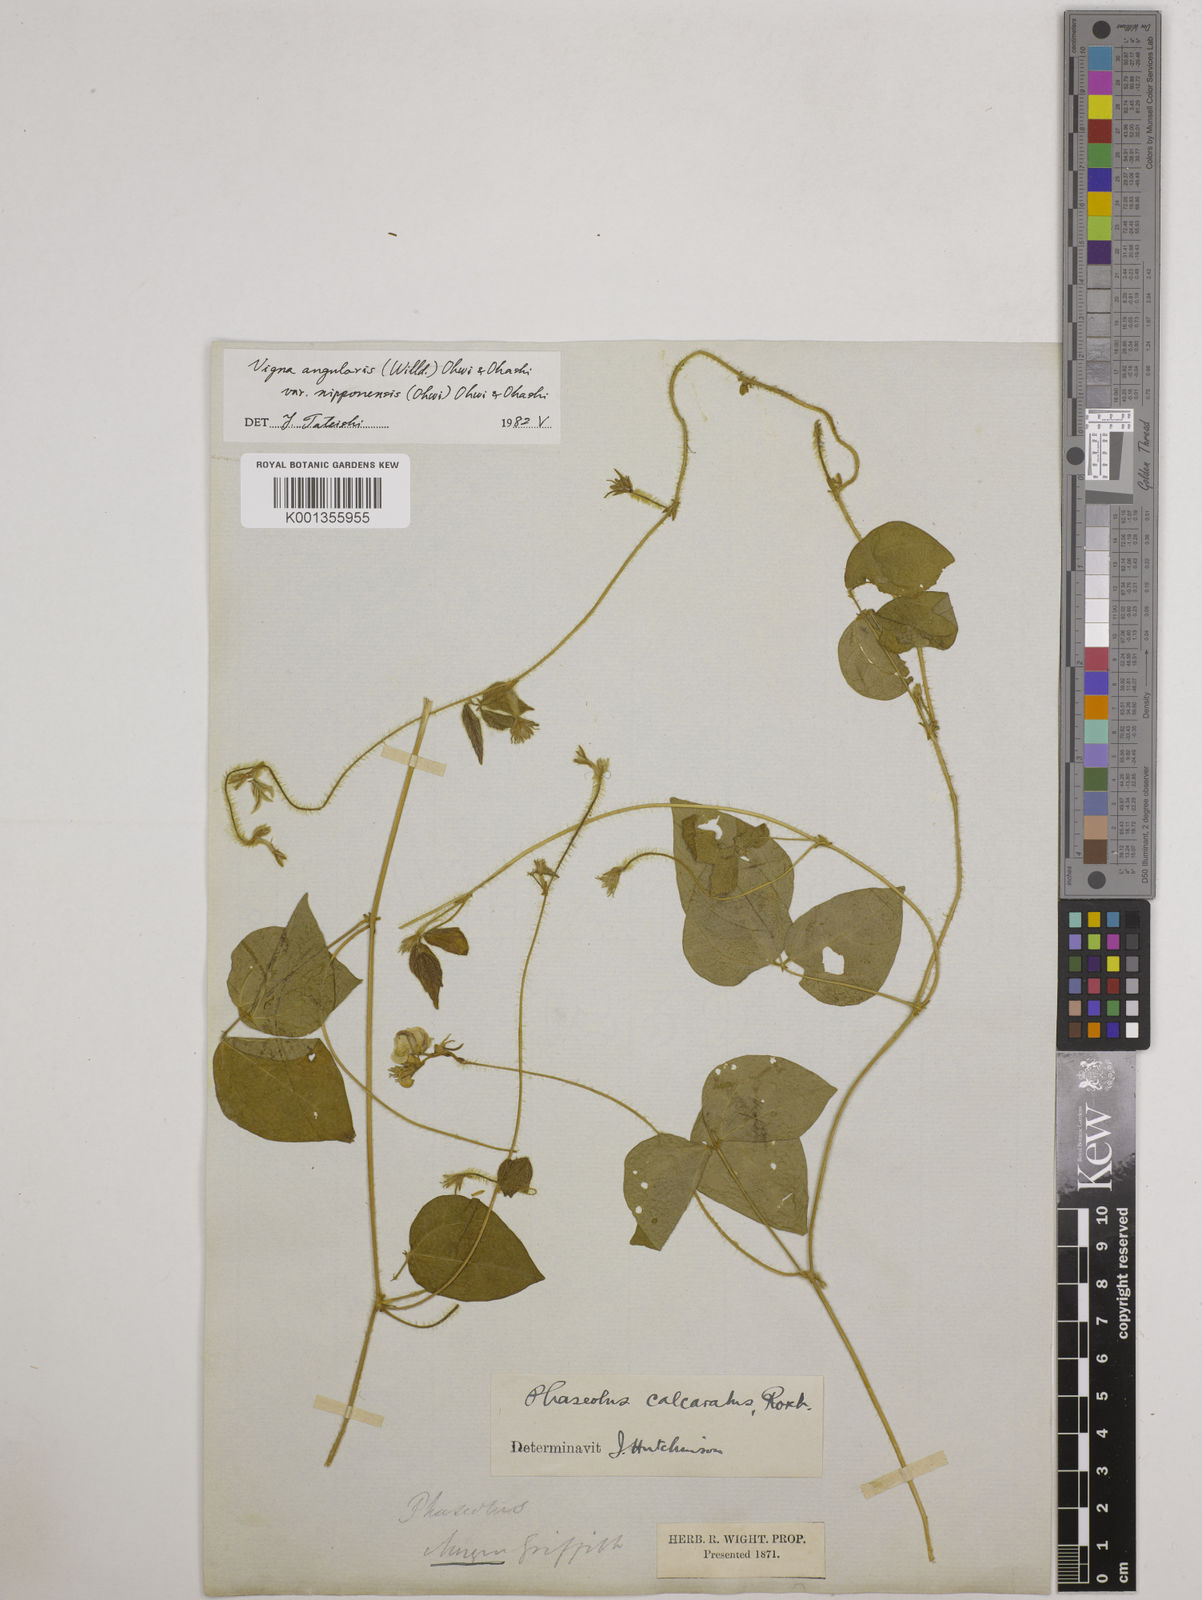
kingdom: Plantae
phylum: Tracheophyta
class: Magnoliopsida
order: Fabales
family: Fabaceae
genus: Vigna
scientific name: Vigna
